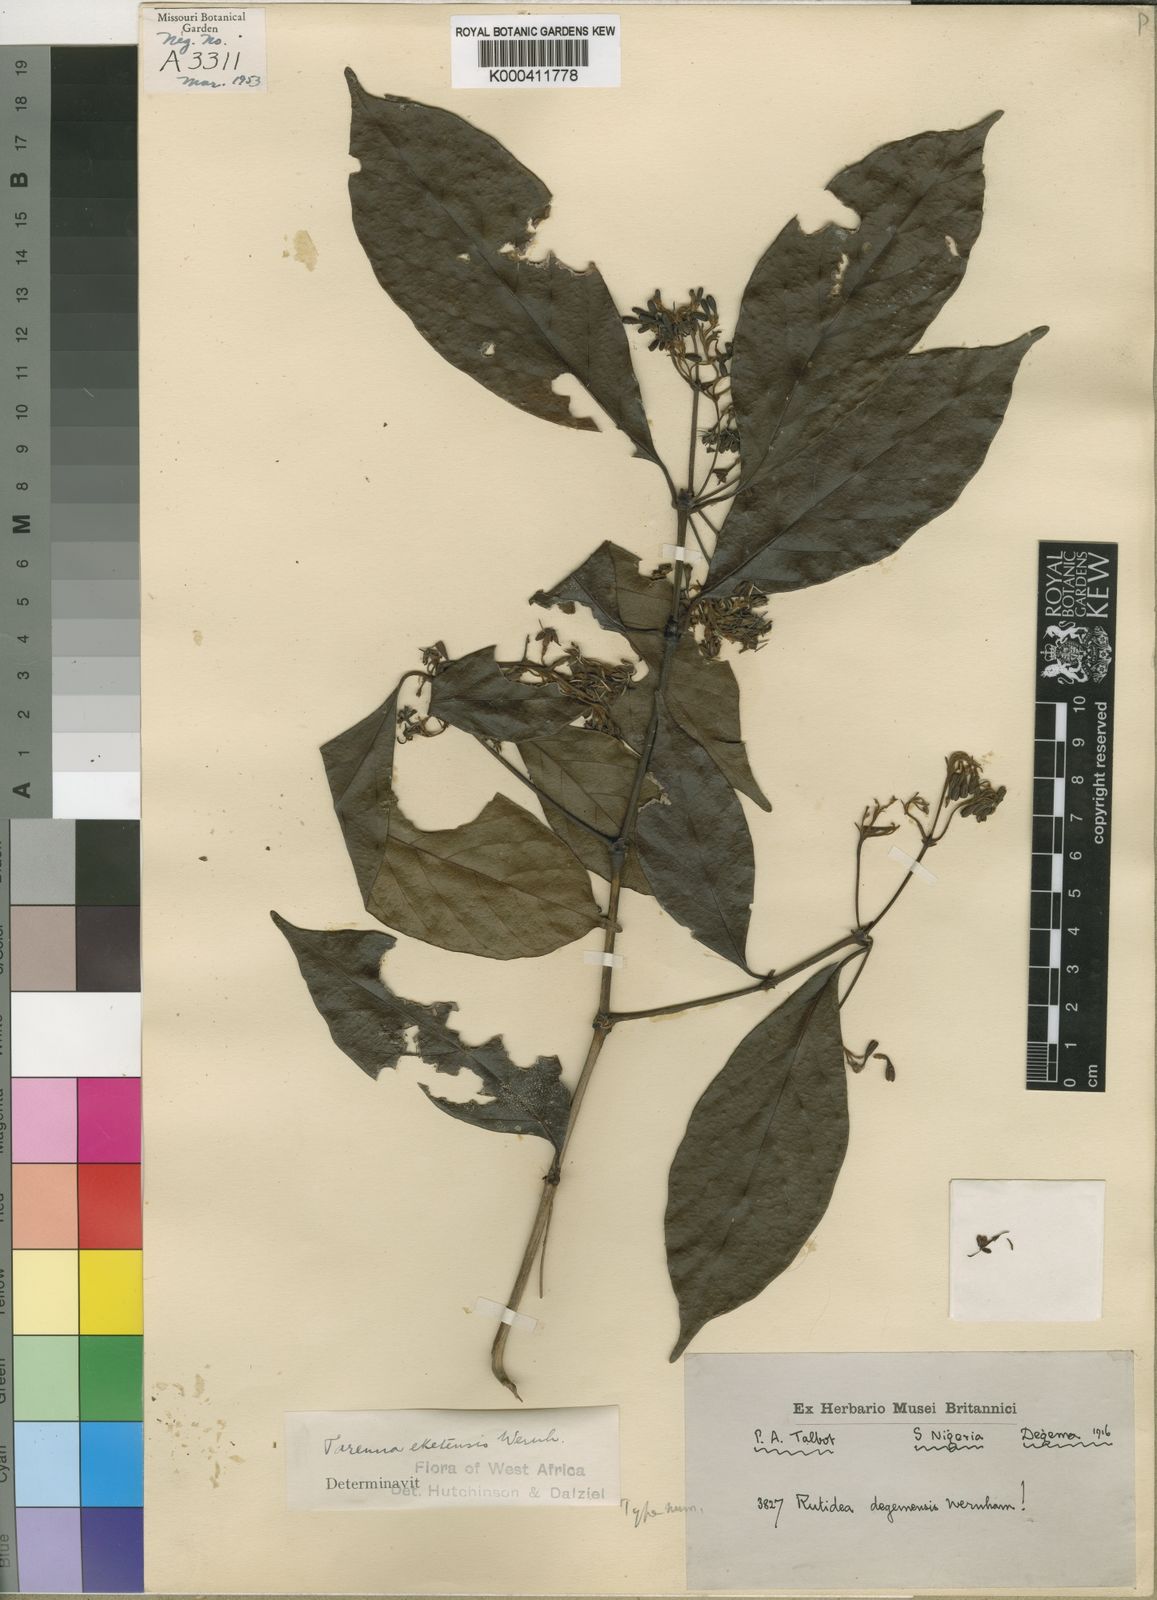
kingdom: Plantae
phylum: Tracheophyta
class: Magnoliopsida
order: Gentianales
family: Rubiaceae
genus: Tarenna
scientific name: Tarenna eketensis
